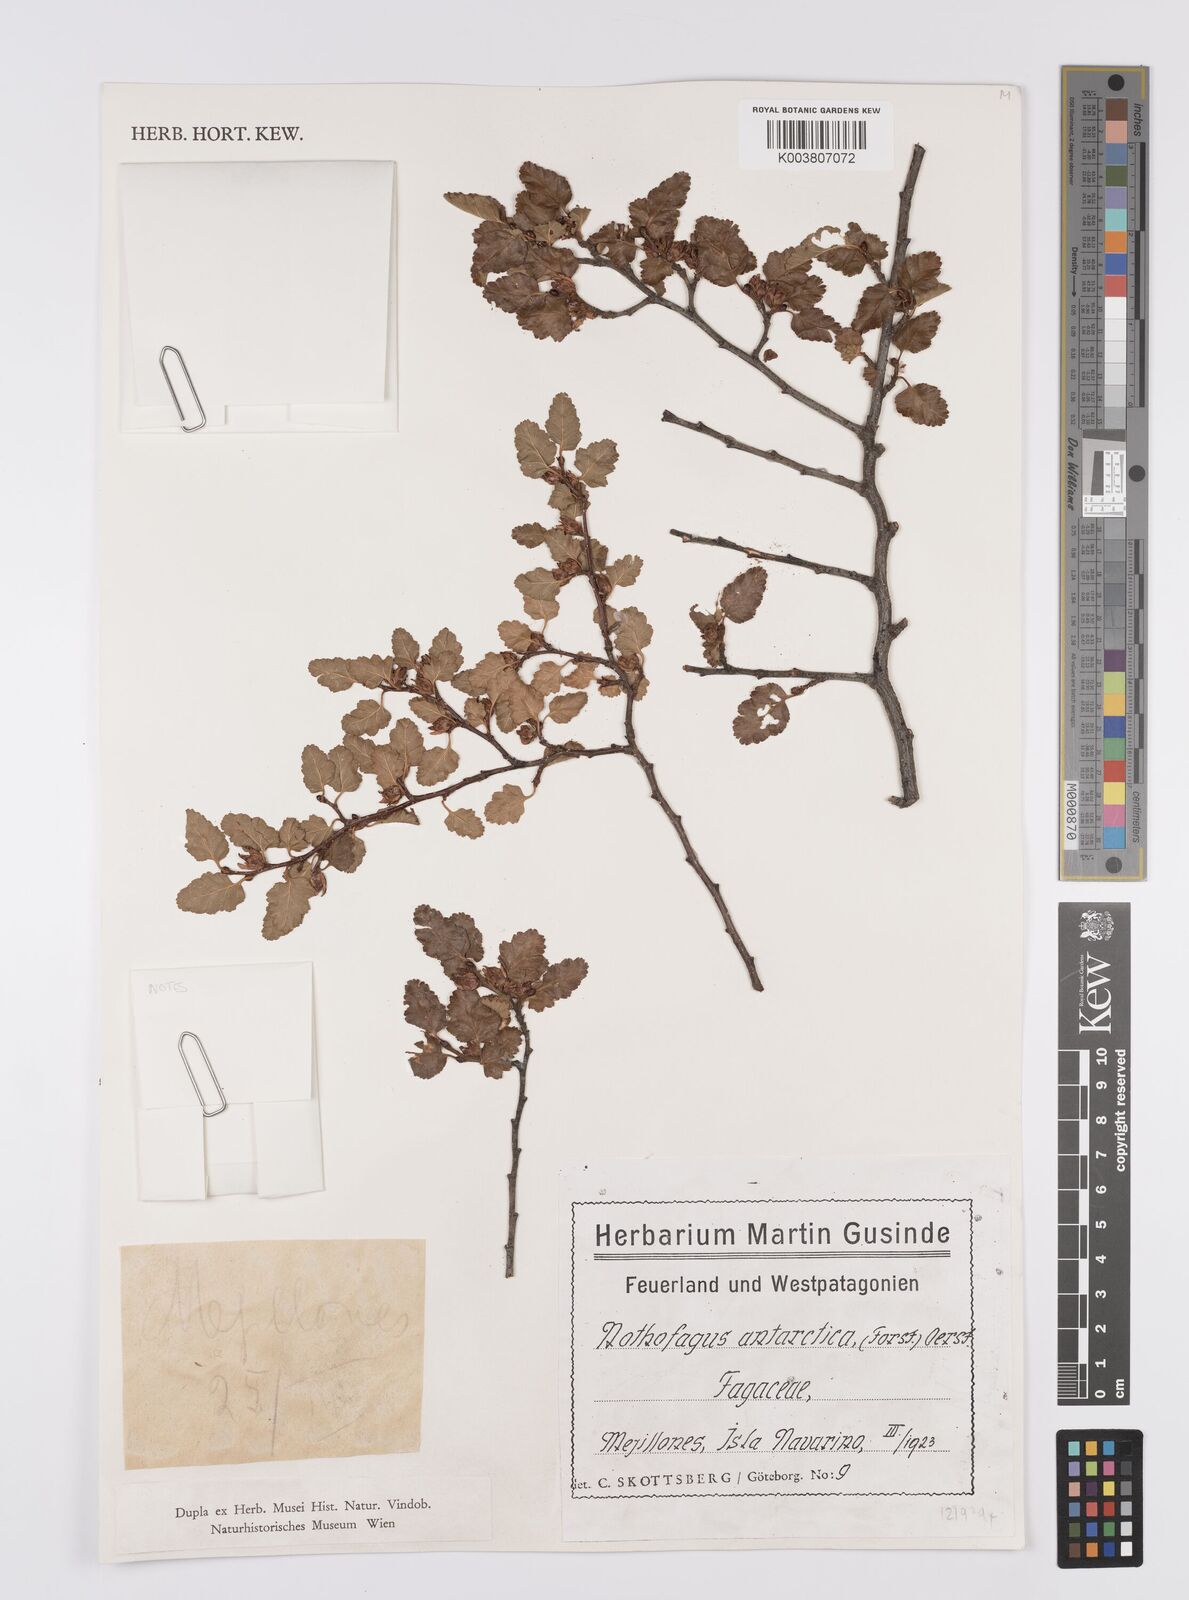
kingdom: Plantae
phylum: Tracheophyta
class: Magnoliopsida
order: Fagales
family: Nothofagaceae
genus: Nothofagus
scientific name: Nothofagus antarctica
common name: Antarctic beech
